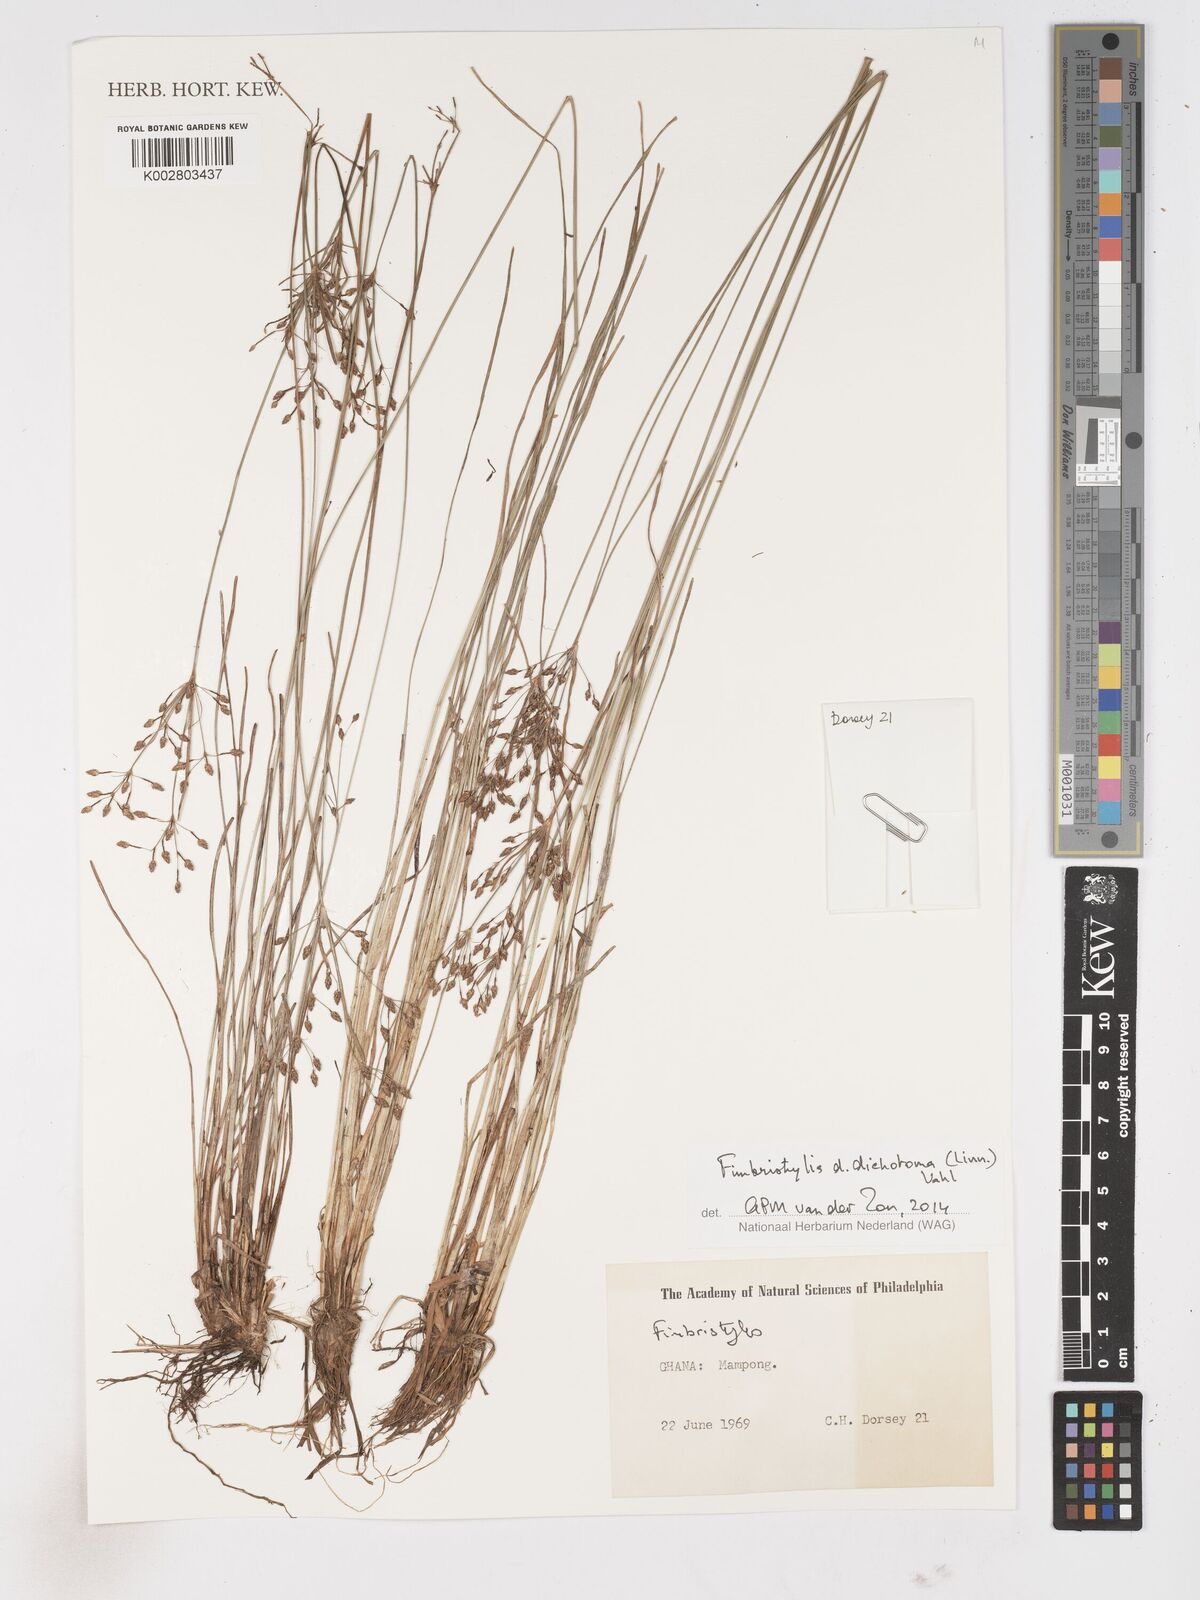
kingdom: Plantae
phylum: Tracheophyta
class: Liliopsida
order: Poales
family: Cyperaceae
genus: Fimbristylis
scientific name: Fimbristylis dichotoma
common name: Forked fimbry
